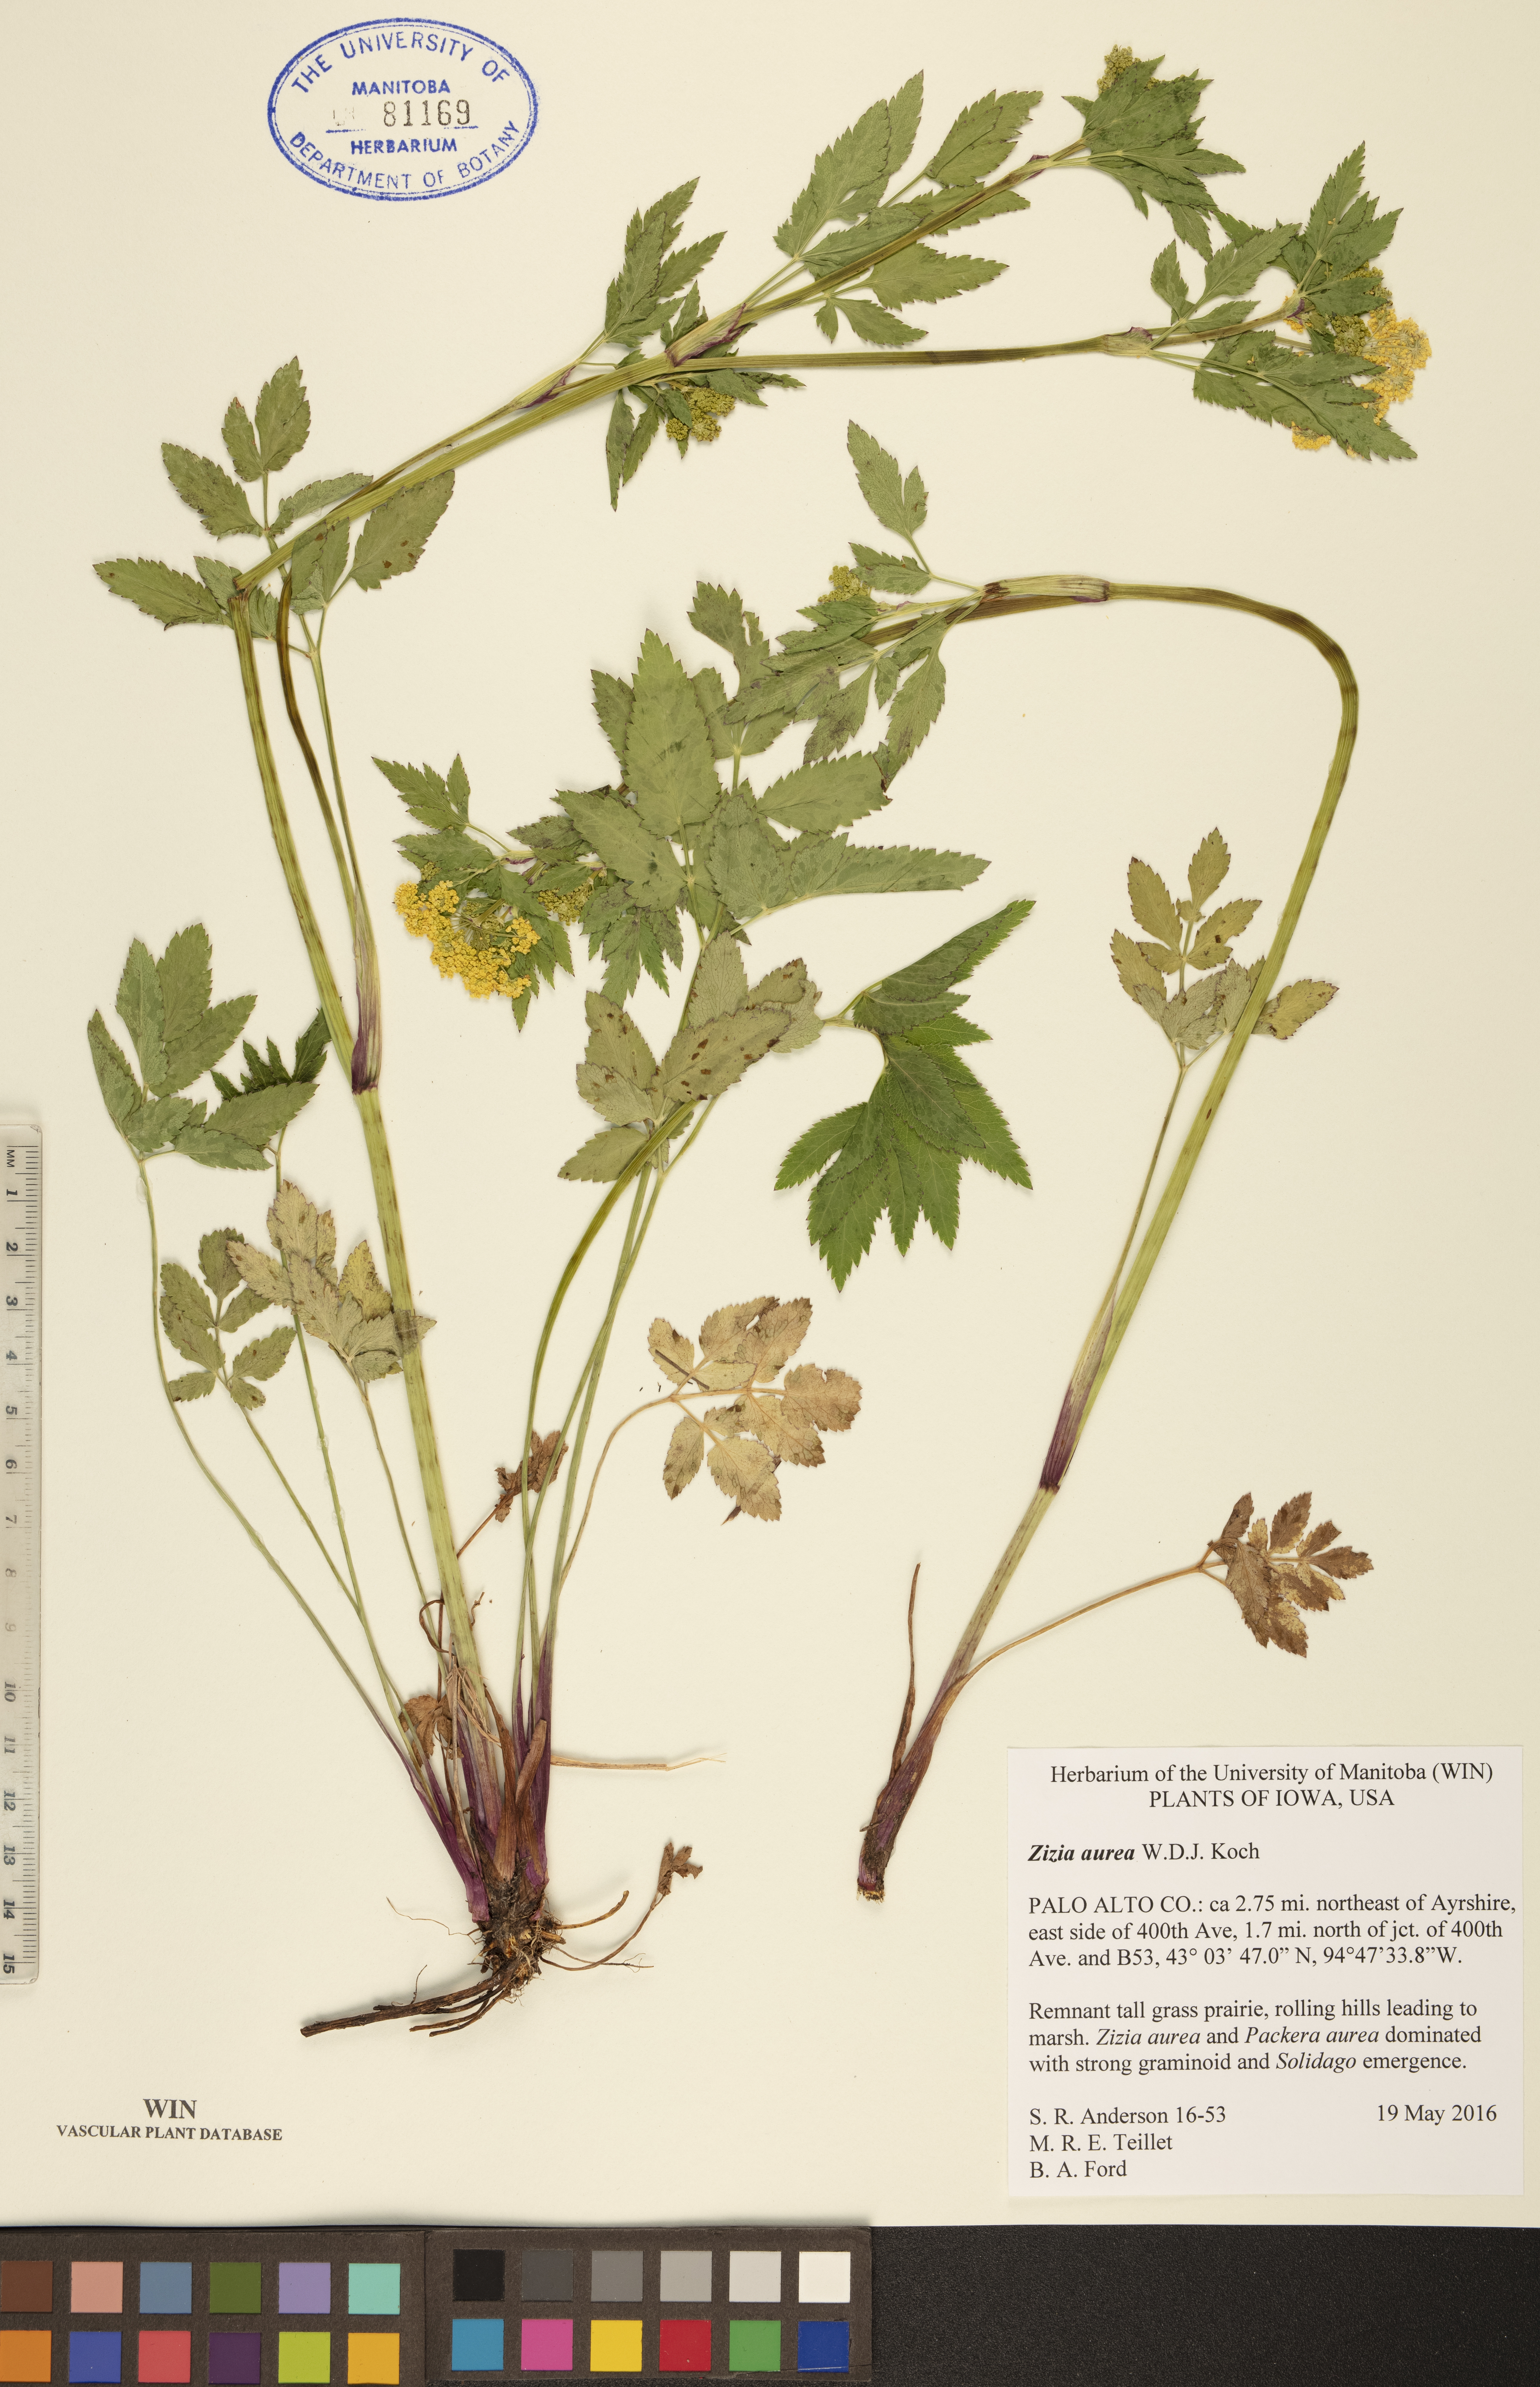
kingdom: Plantae
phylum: Tracheophyta
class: Magnoliopsida
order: Apiales
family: Apiaceae
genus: Zizia
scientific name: Zizia aurea
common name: Golden alexanders
